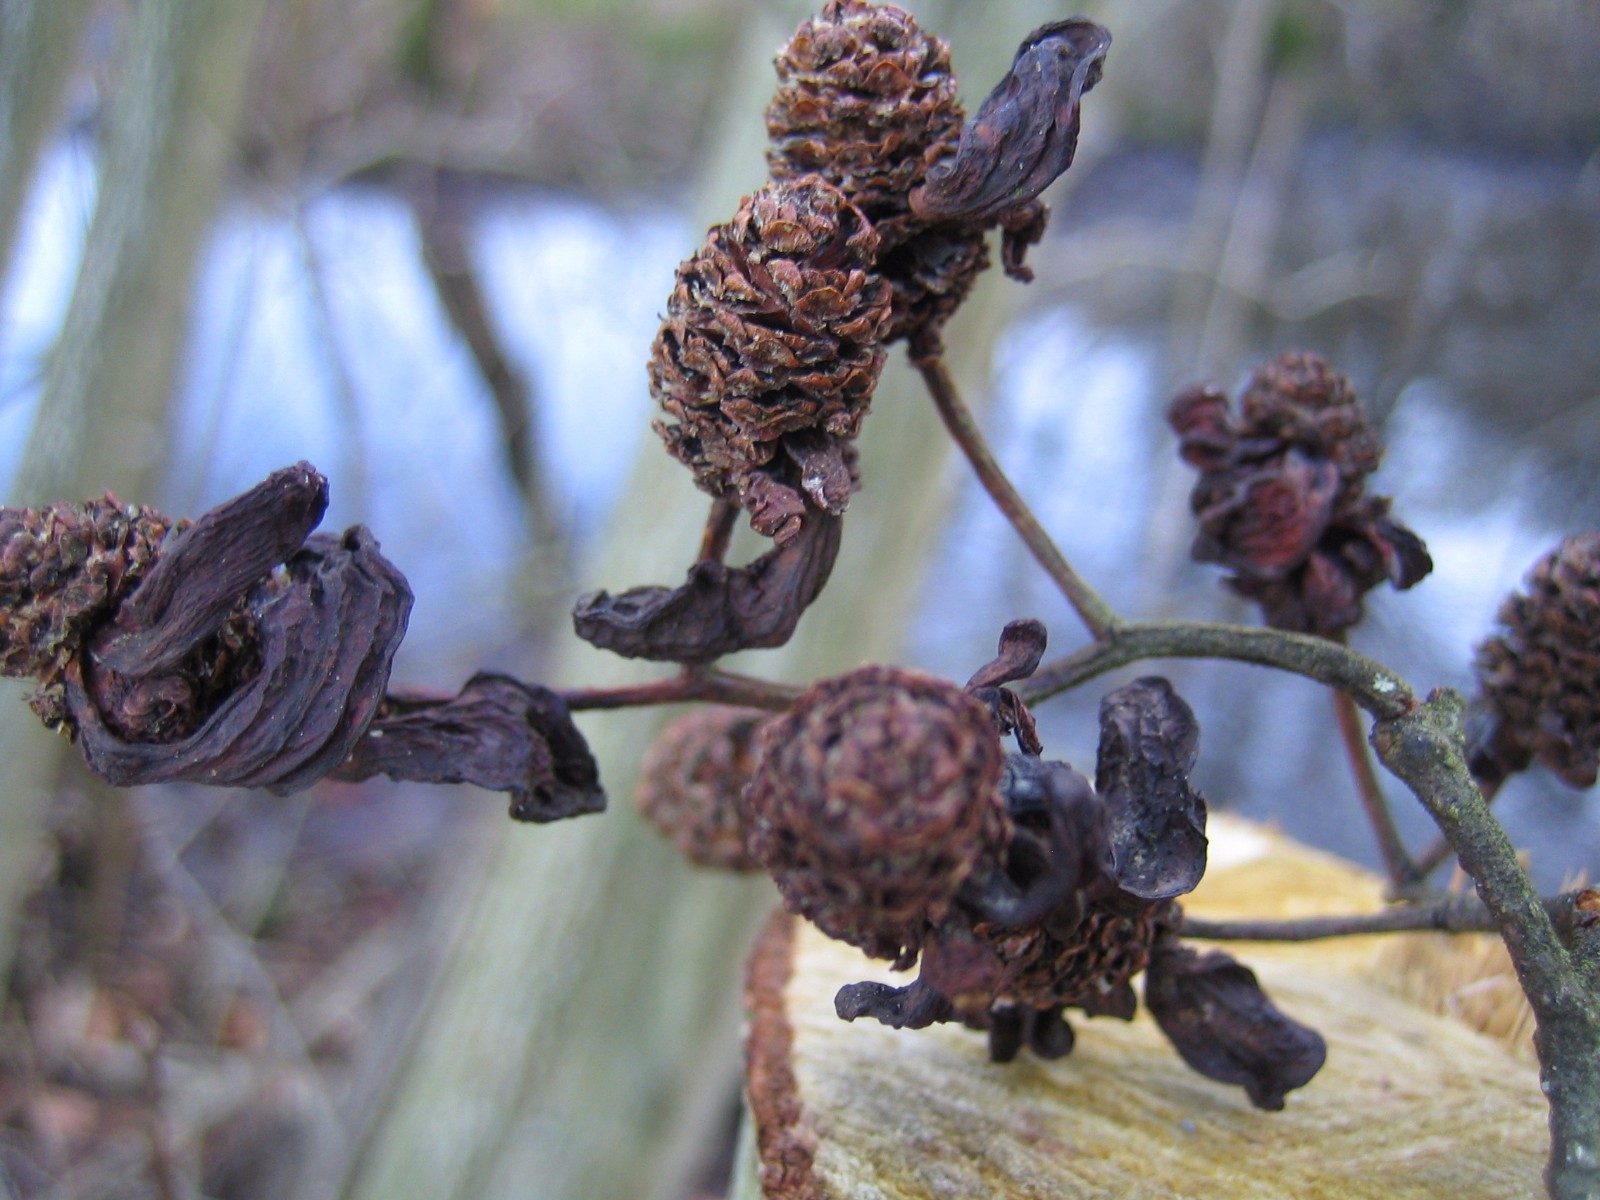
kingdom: Fungi
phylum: Ascomycota
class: Taphrinomycetes
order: Taphrinales
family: Taphrinaceae
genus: Taphrina
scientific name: Taphrina alni
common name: Alder tongue
